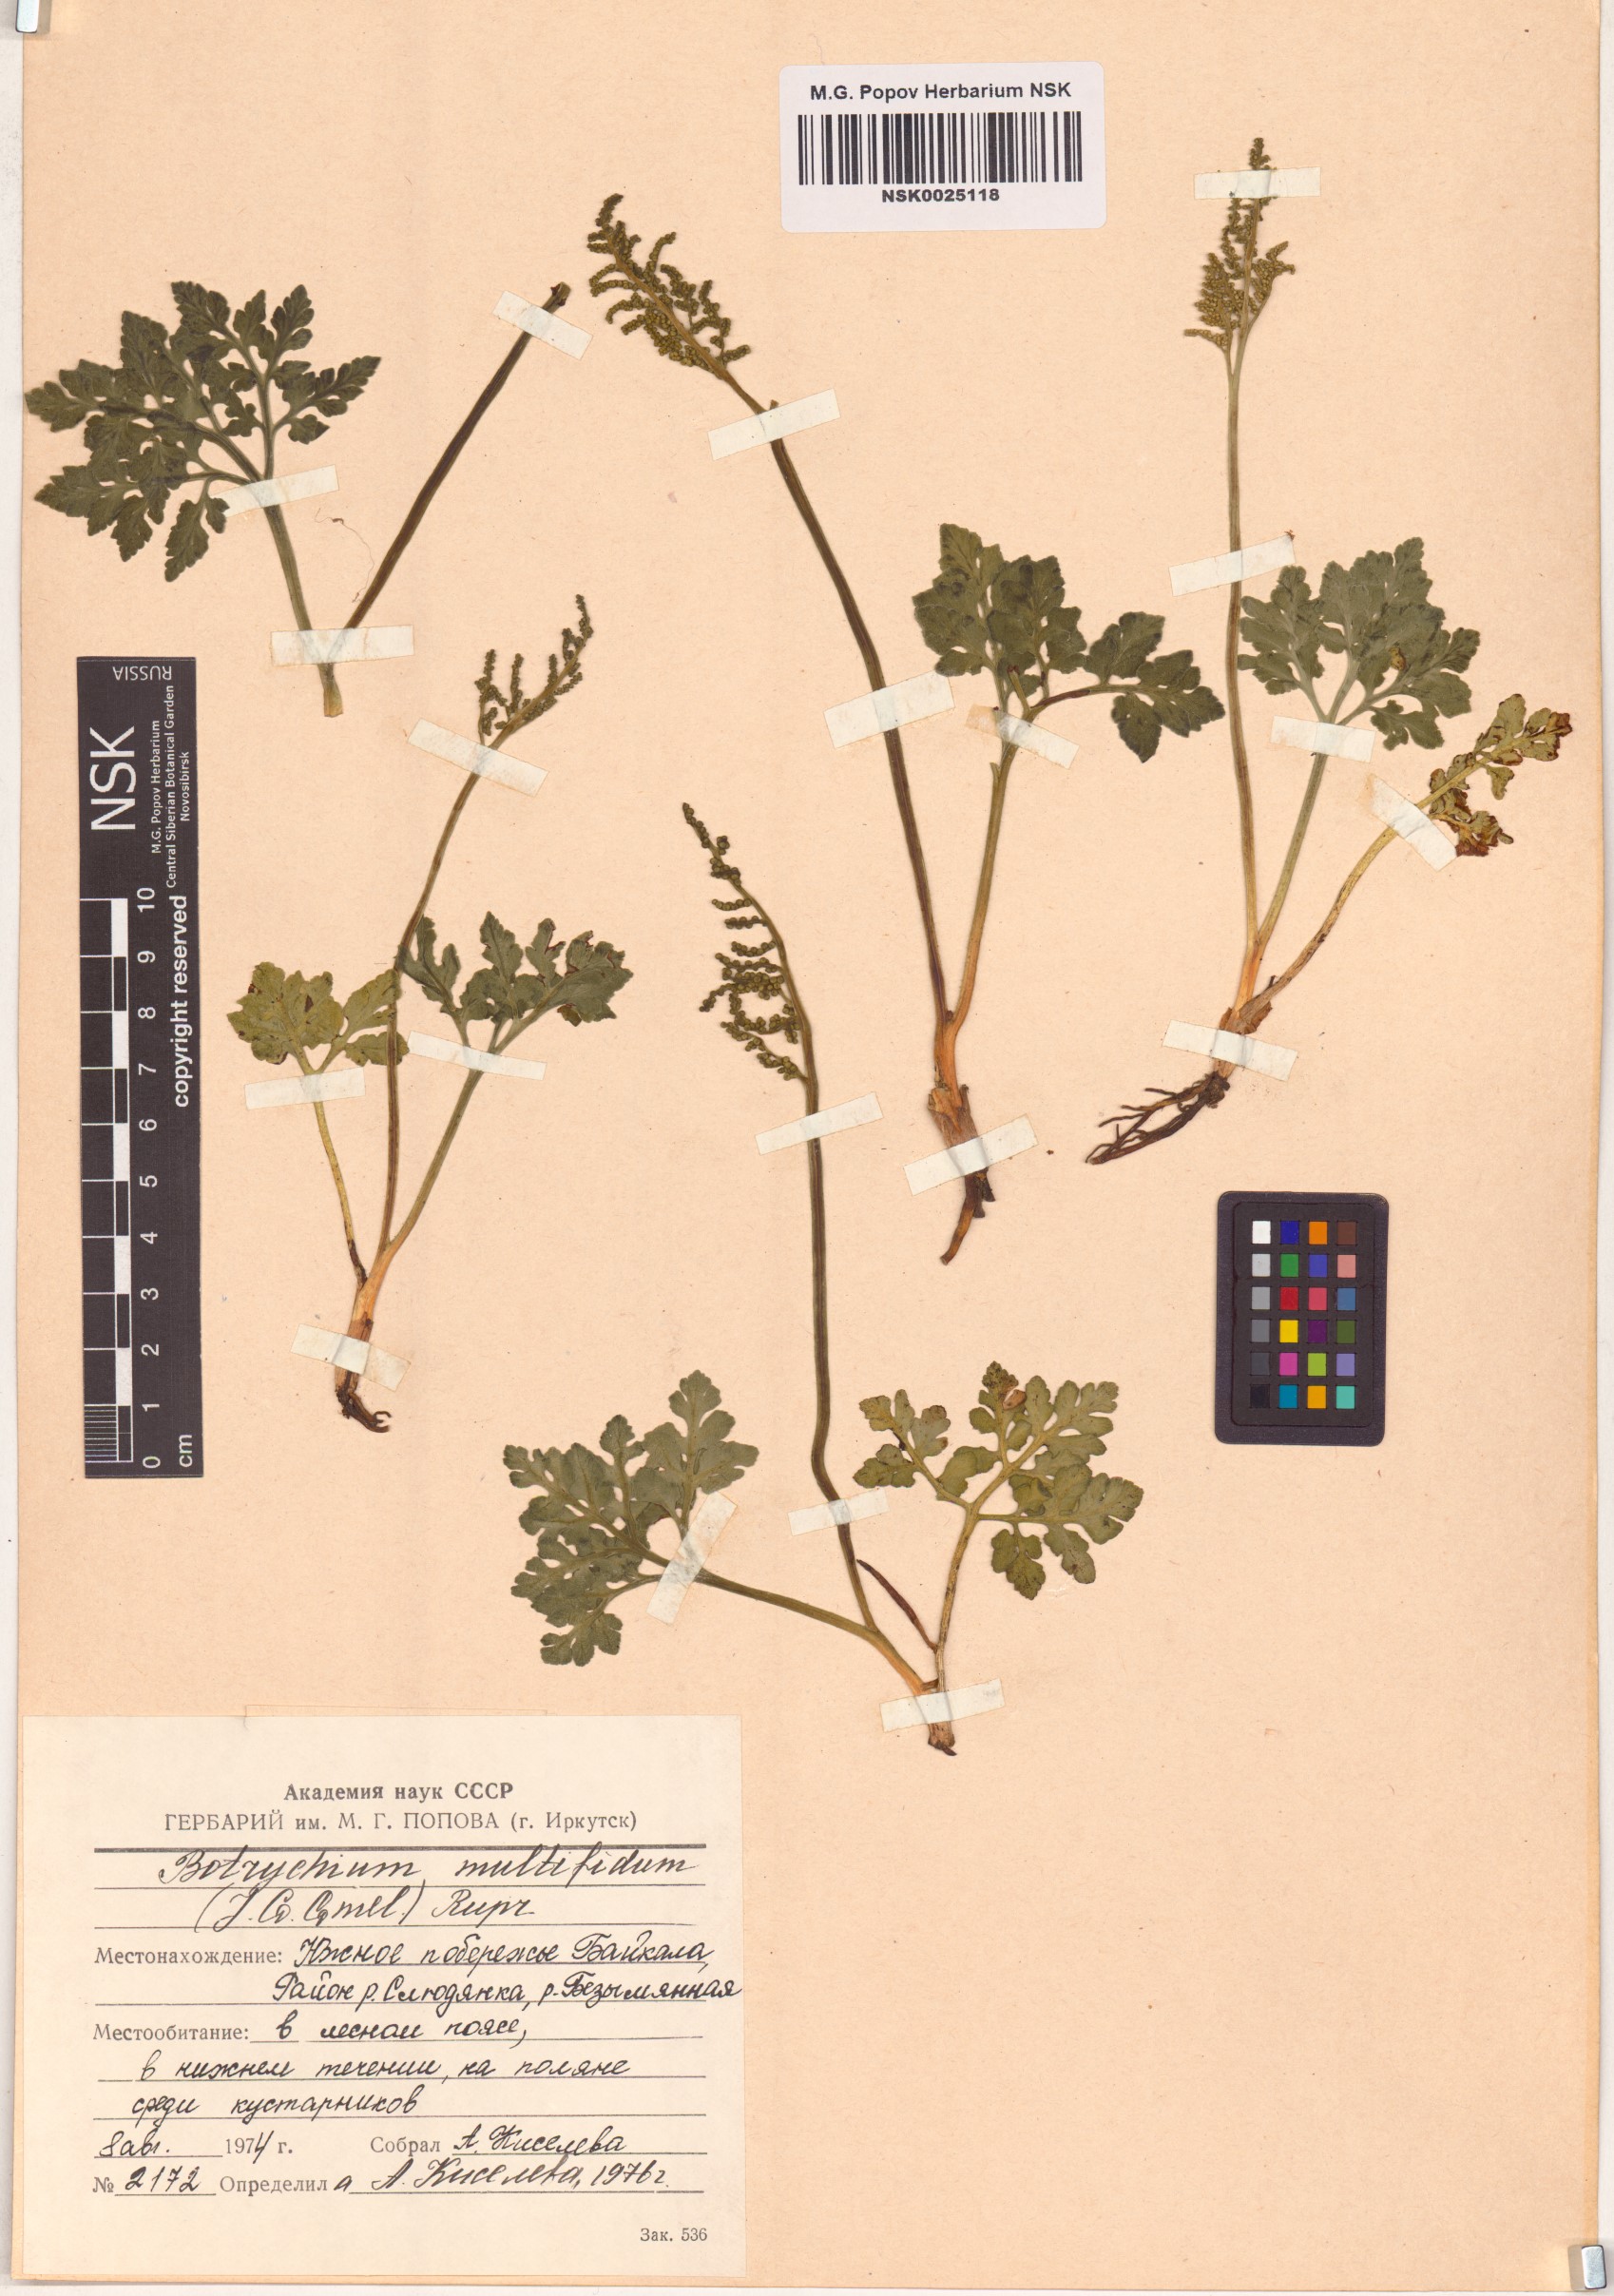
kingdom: Plantae
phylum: Tracheophyta
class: Polypodiopsida
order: Ophioglossales
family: Ophioglossaceae
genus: Sceptridium
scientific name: Sceptridium multifidum
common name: Leathery grape fern
